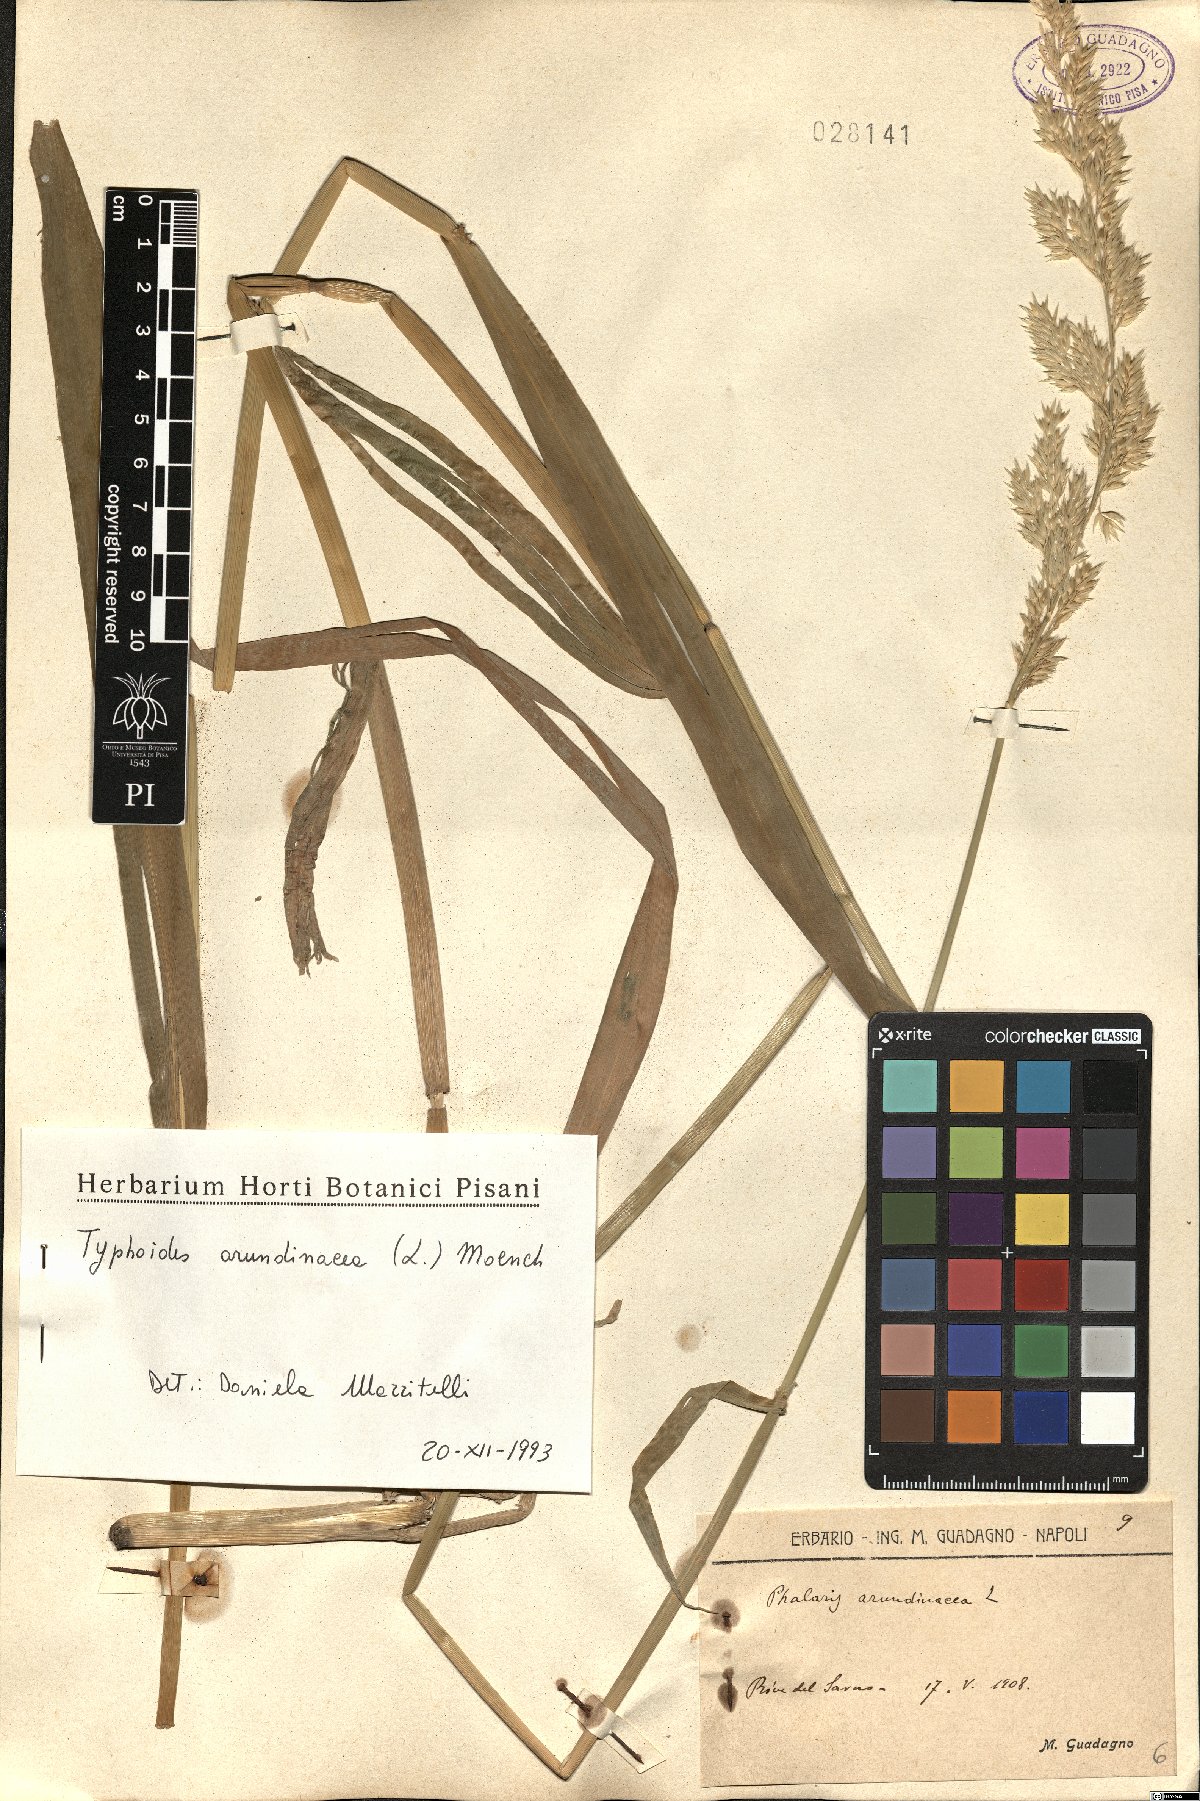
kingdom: Plantae
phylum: Tracheophyta
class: Liliopsida
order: Poales
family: Poaceae
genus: Phalaris
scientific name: Phalaris arundinacea
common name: Reed canary-grass
